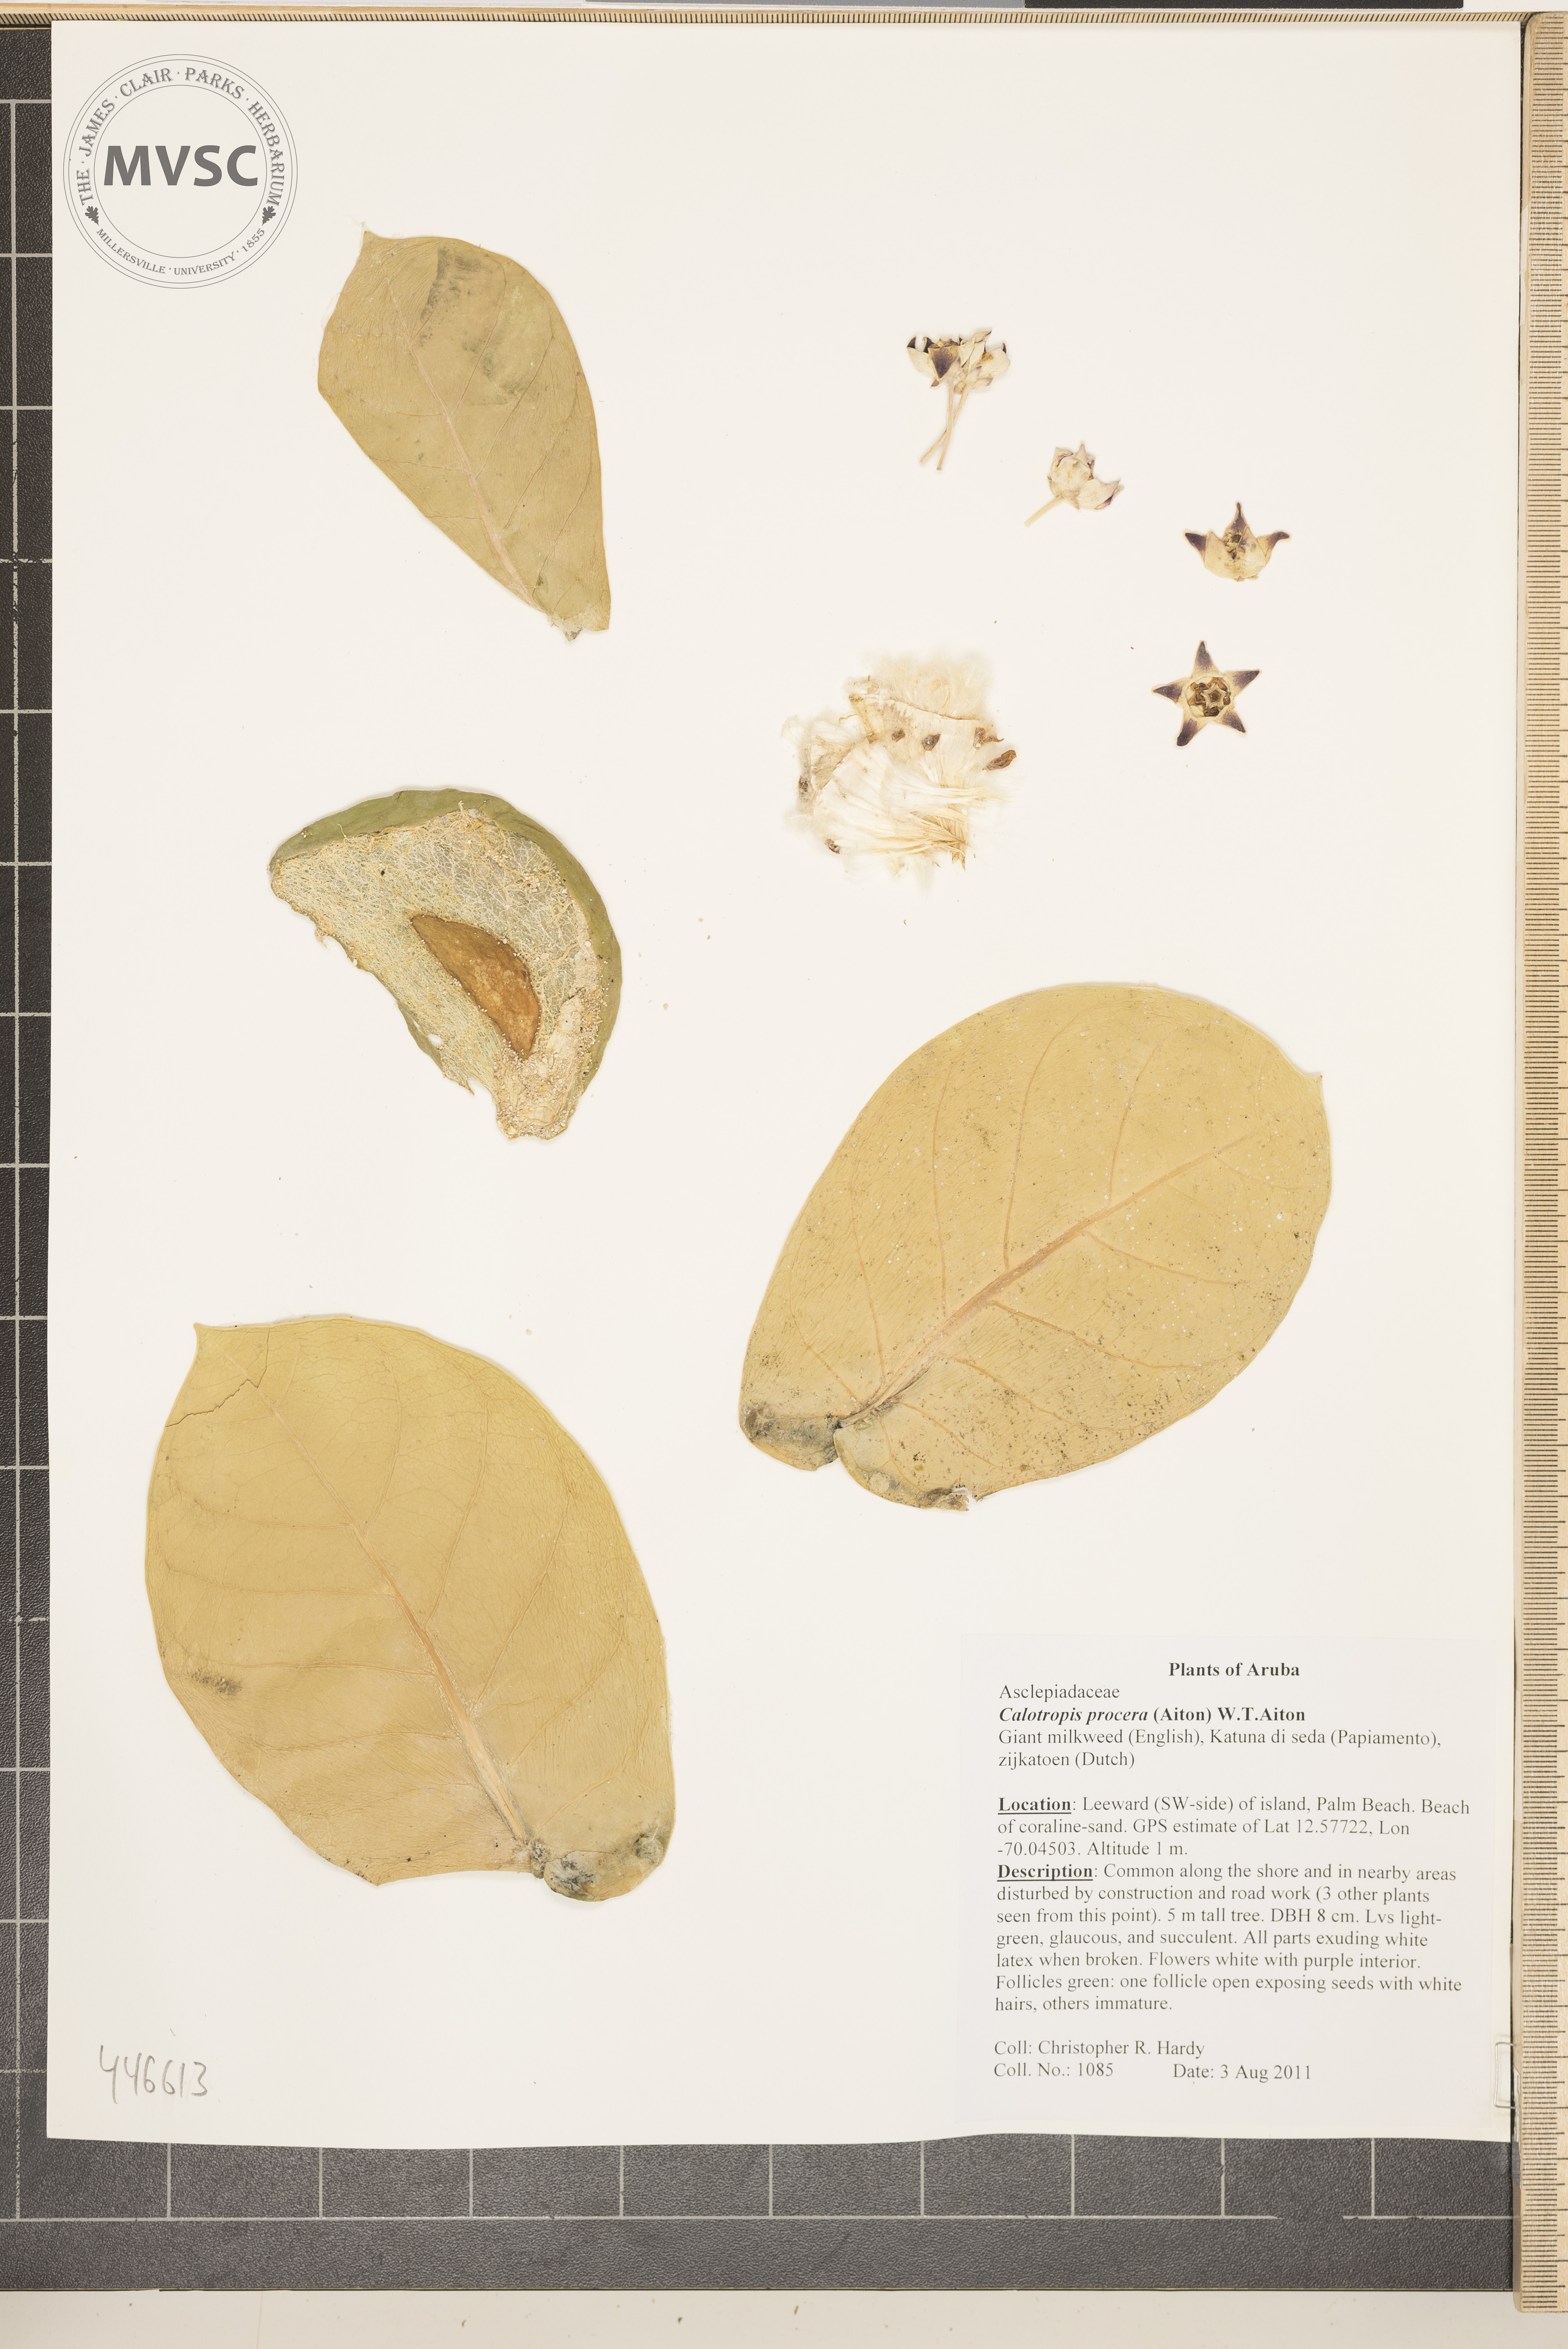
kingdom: Plantae
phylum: Tracheophyta
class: Magnoliopsida
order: Gentianales
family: Apocynaceae
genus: Calotropis
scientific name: Calotropis procera
